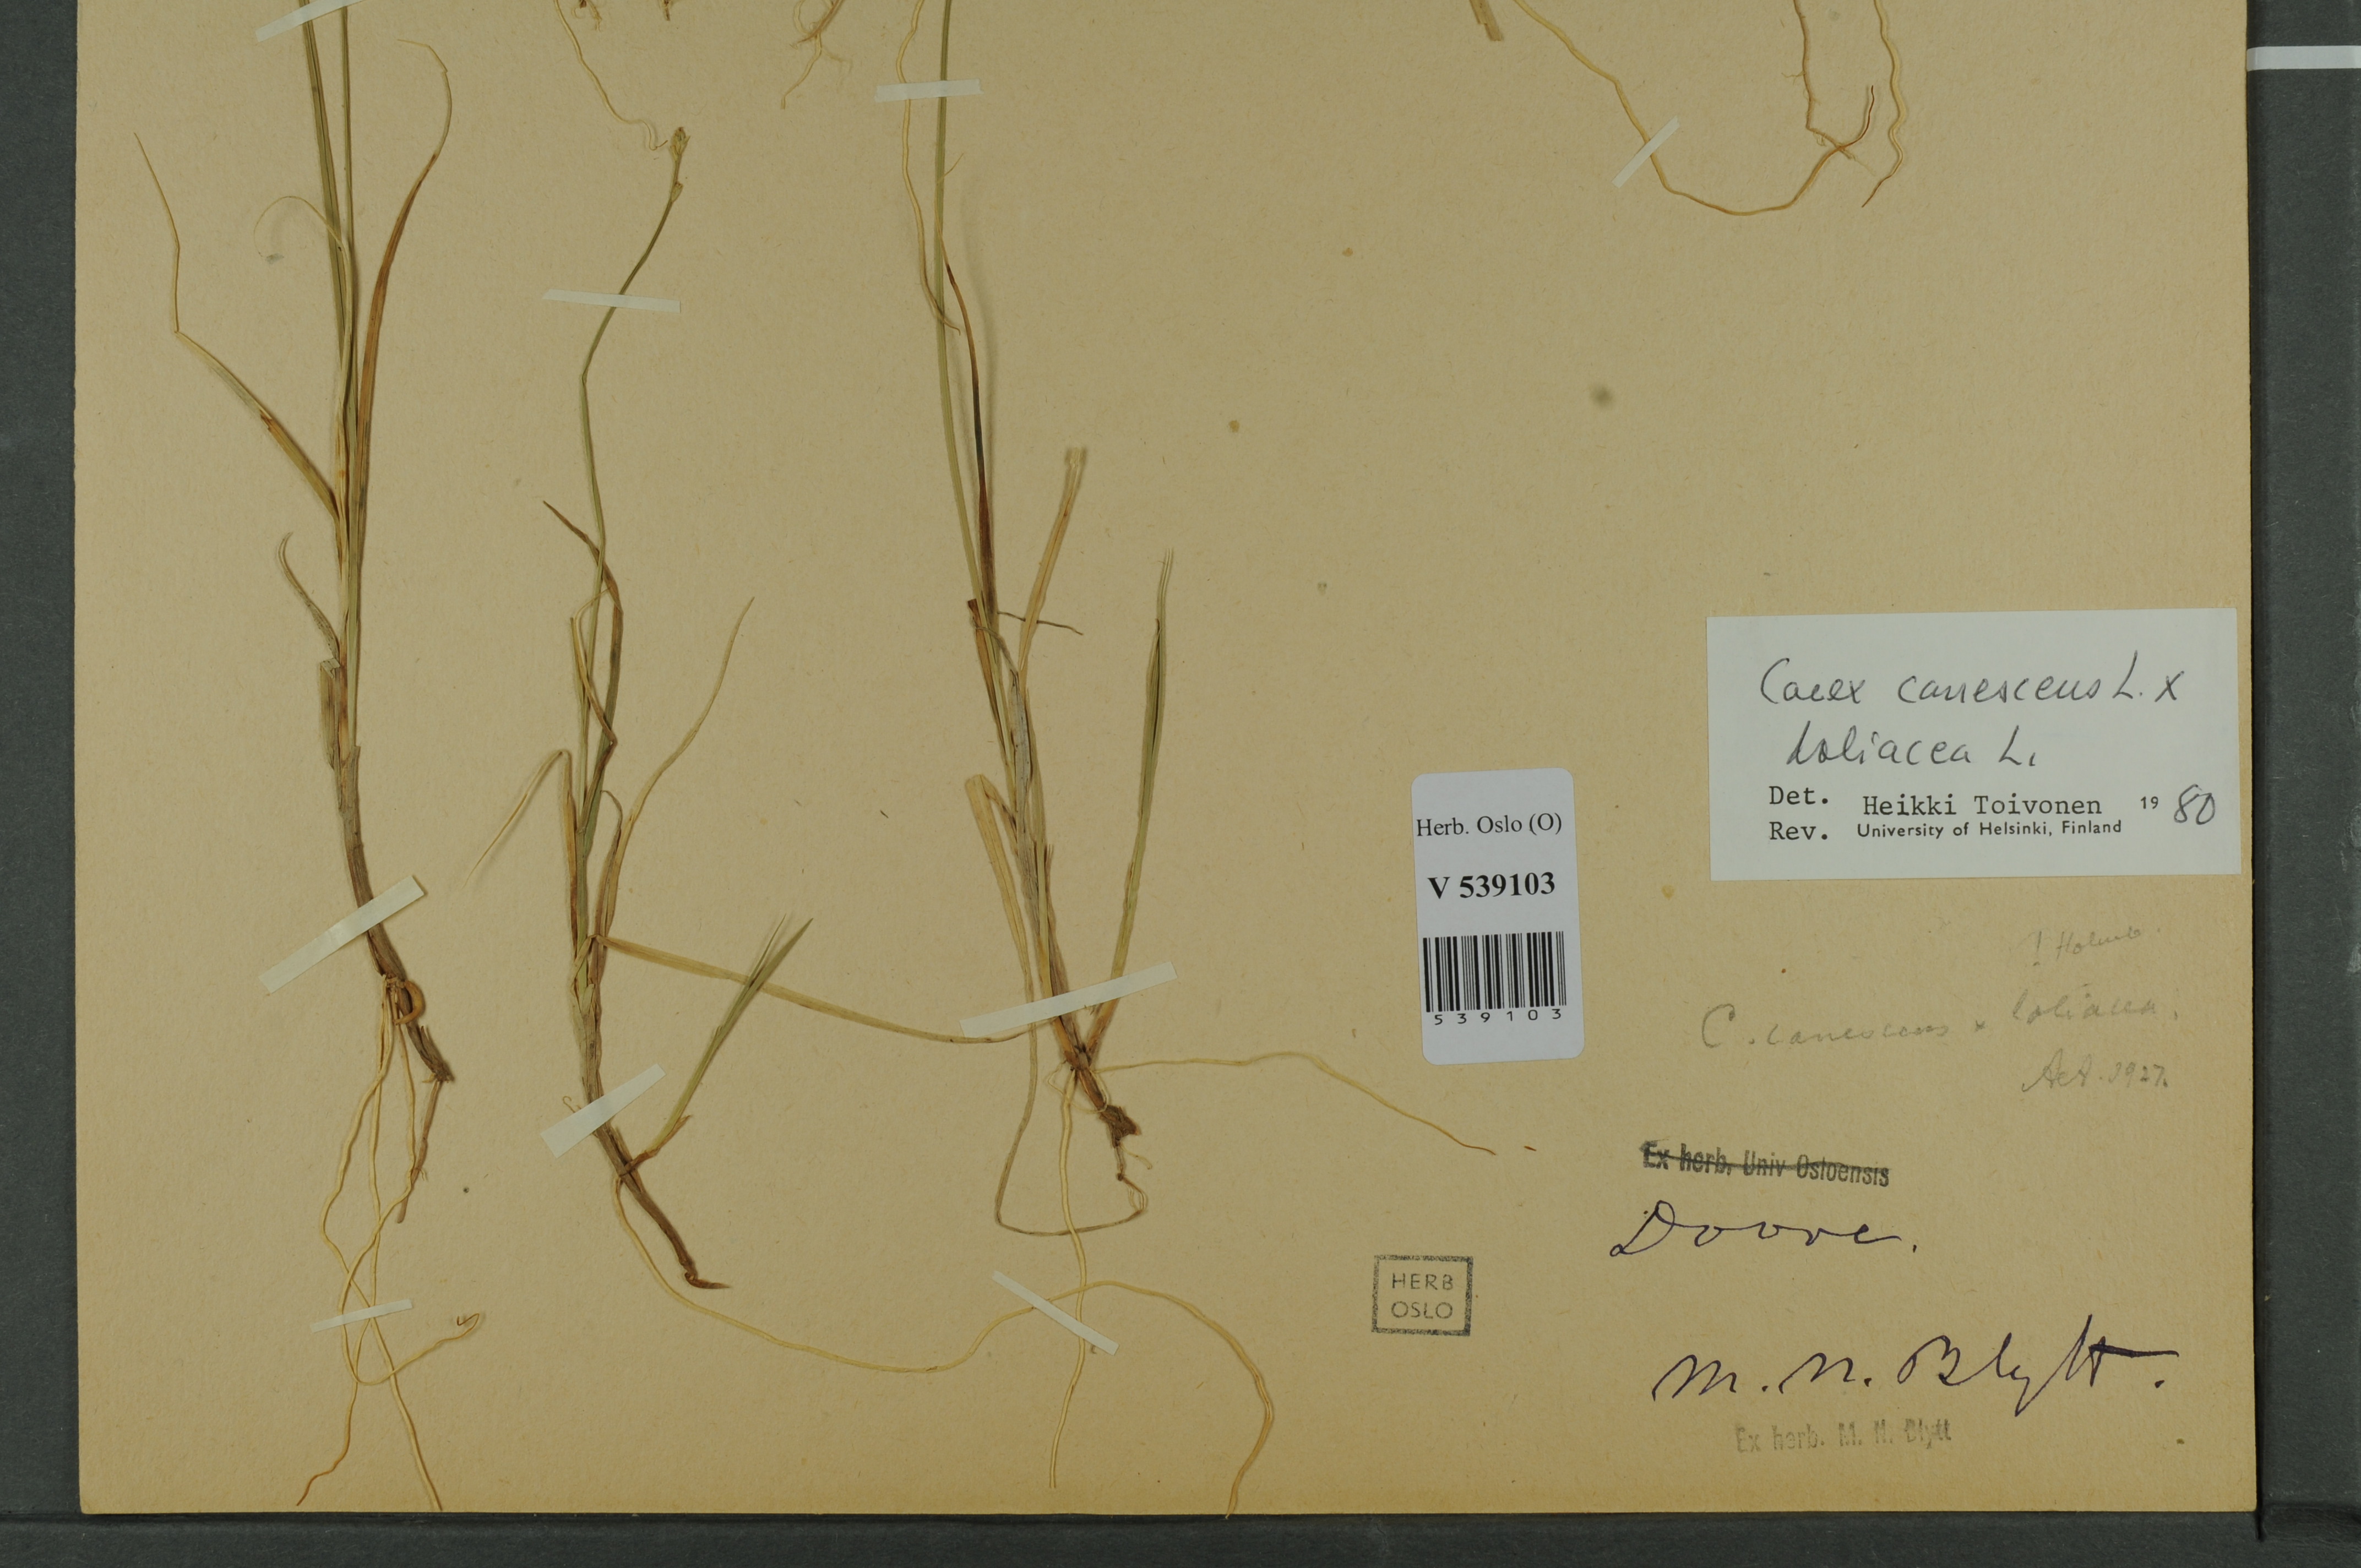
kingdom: Plantae
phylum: Tracheophyta
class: Liliopsida
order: Poales
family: Cyperaceae
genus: Carex
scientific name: Carex
